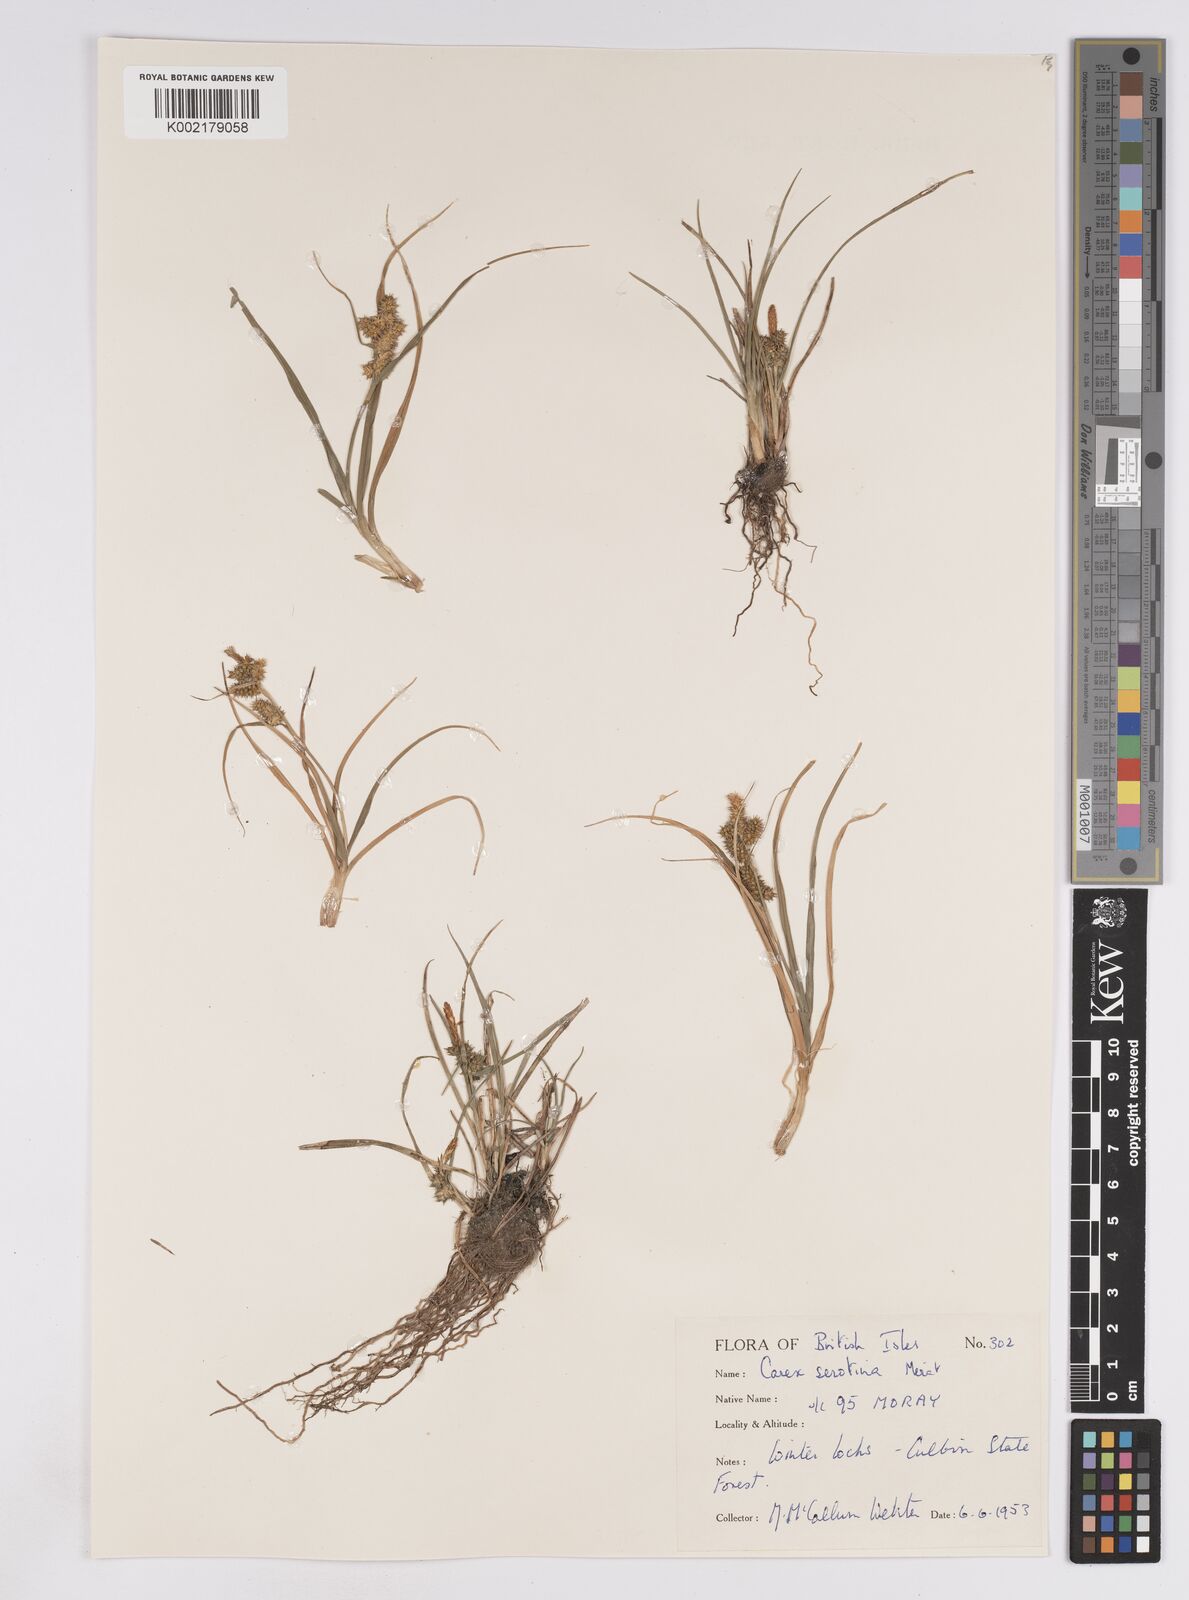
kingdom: Plantae
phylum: Tracheophyta
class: Liliopsida
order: Poales
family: Cyperaceae
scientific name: Cyperaceae
